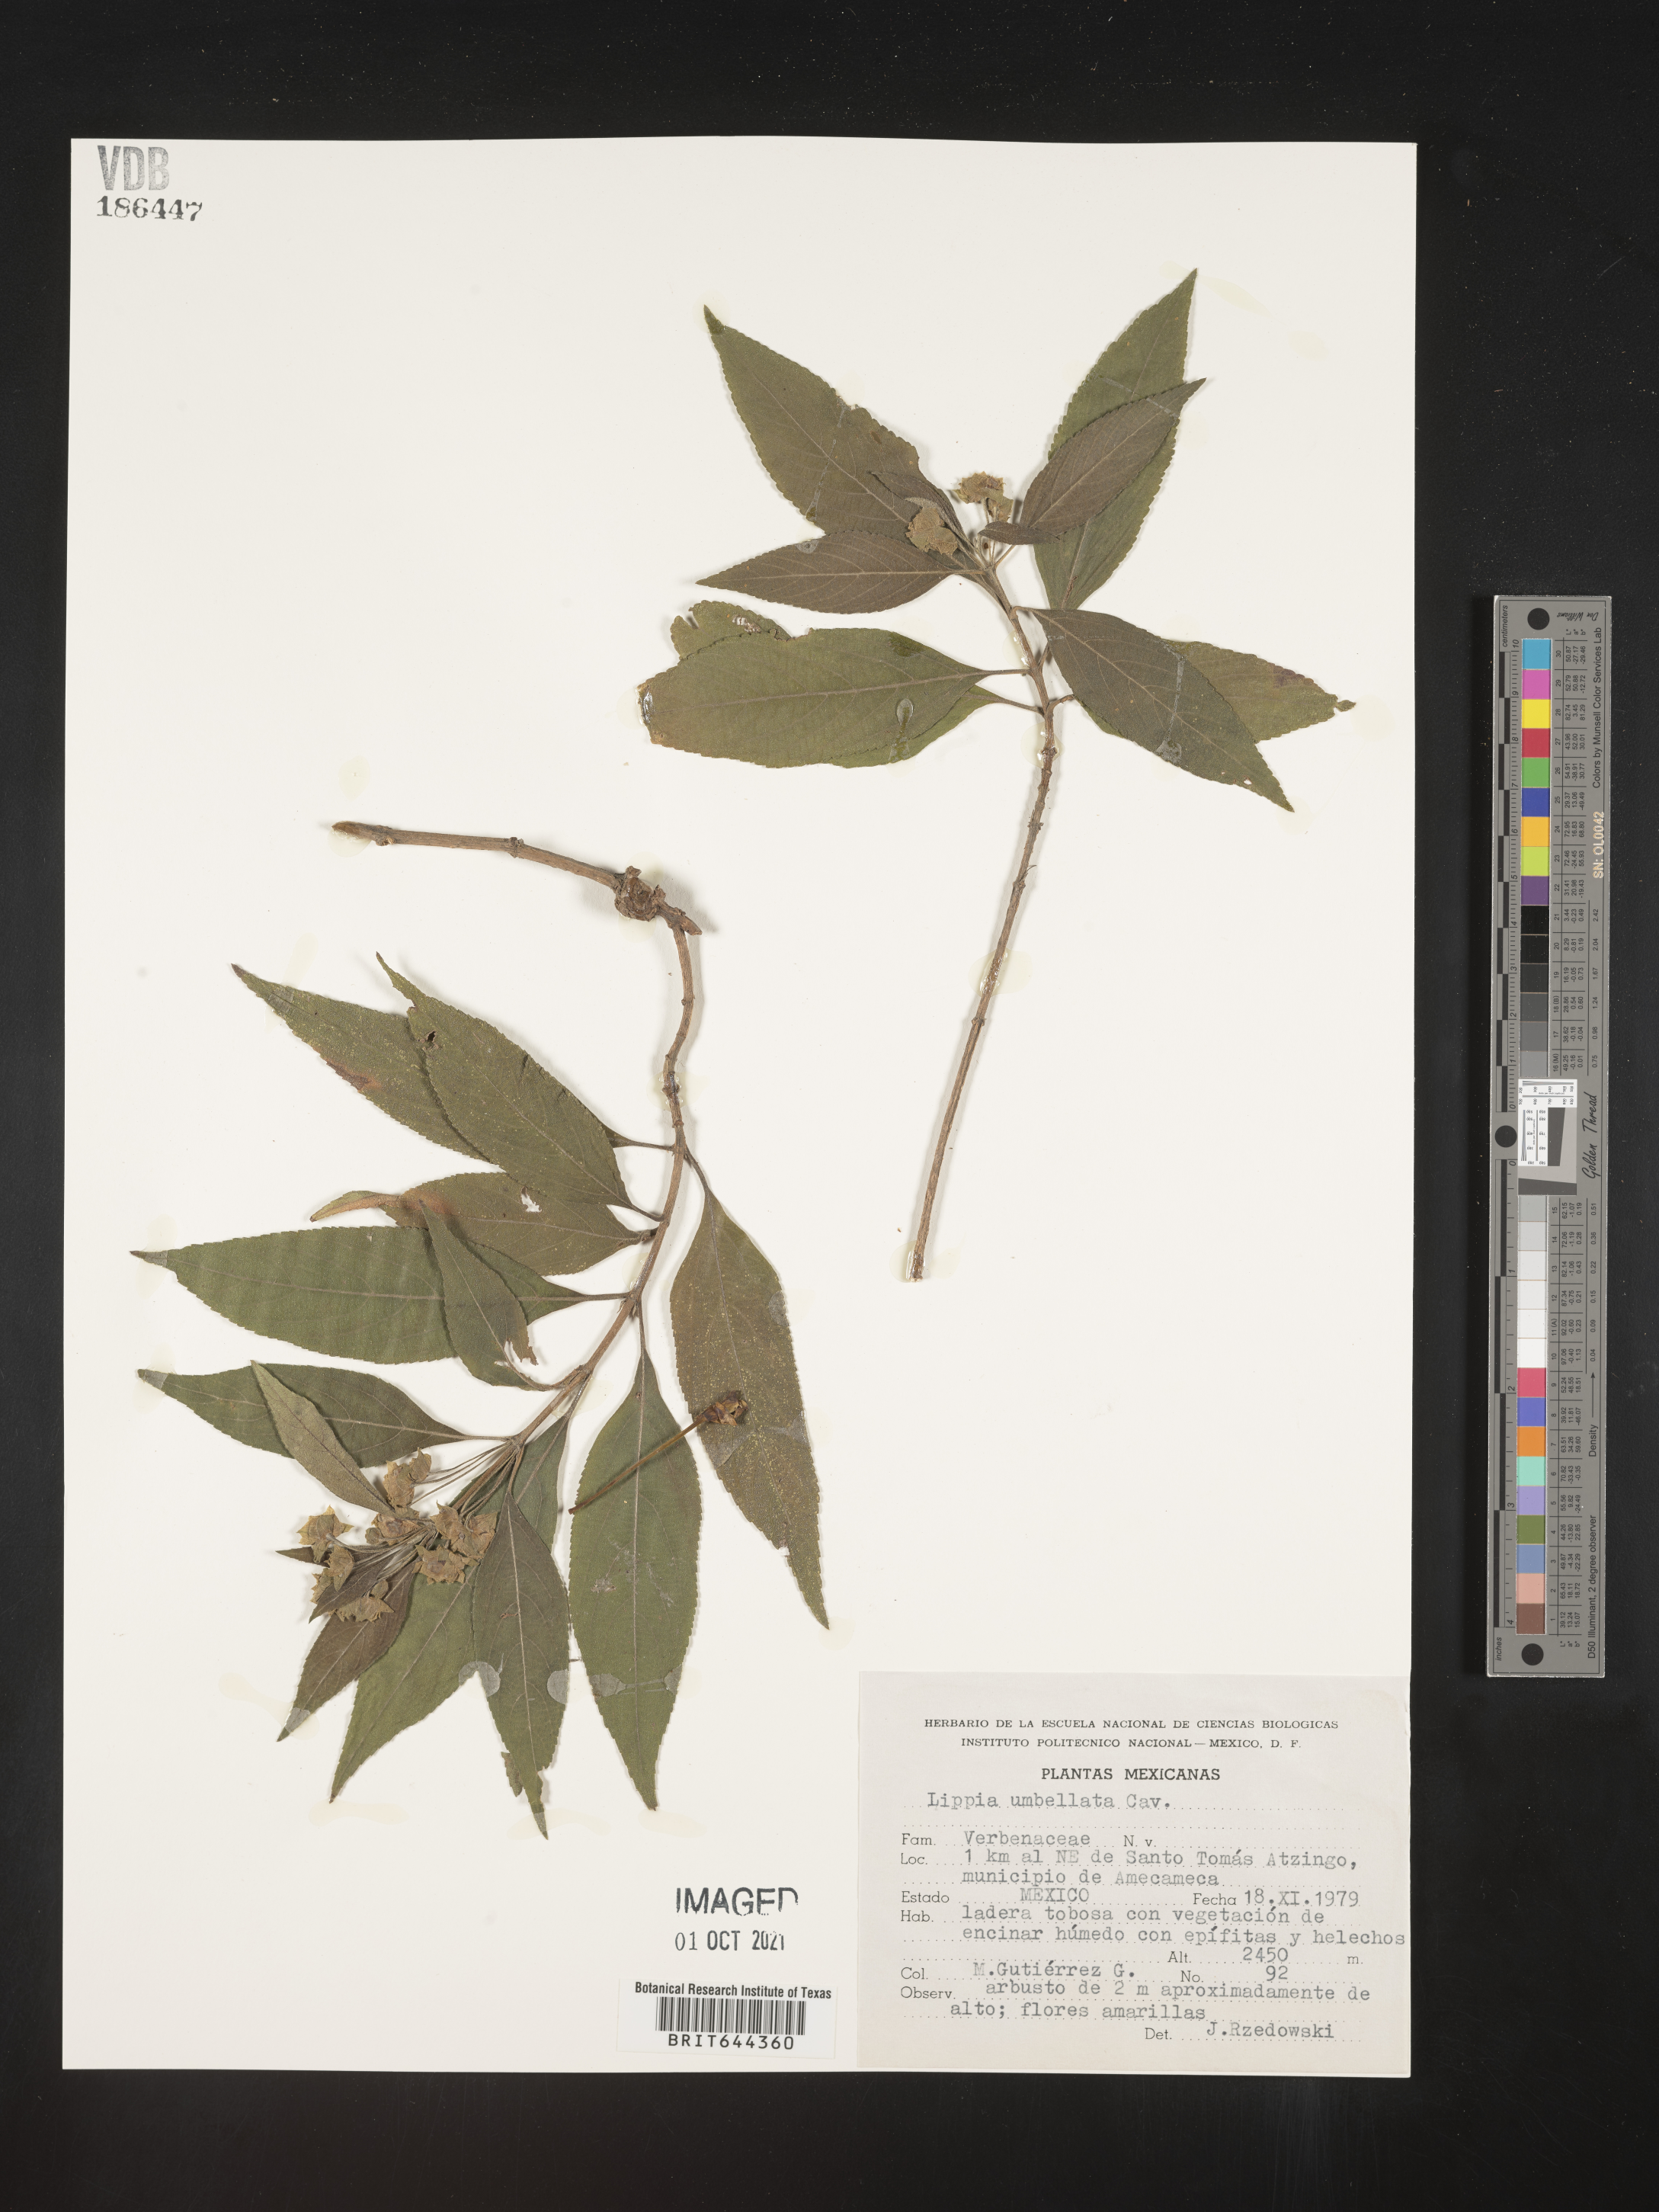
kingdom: Plantae
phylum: Tracheophyta
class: Magnoliopsida
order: Lamiales
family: Verbenaceae
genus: Lippia
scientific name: Lippia
